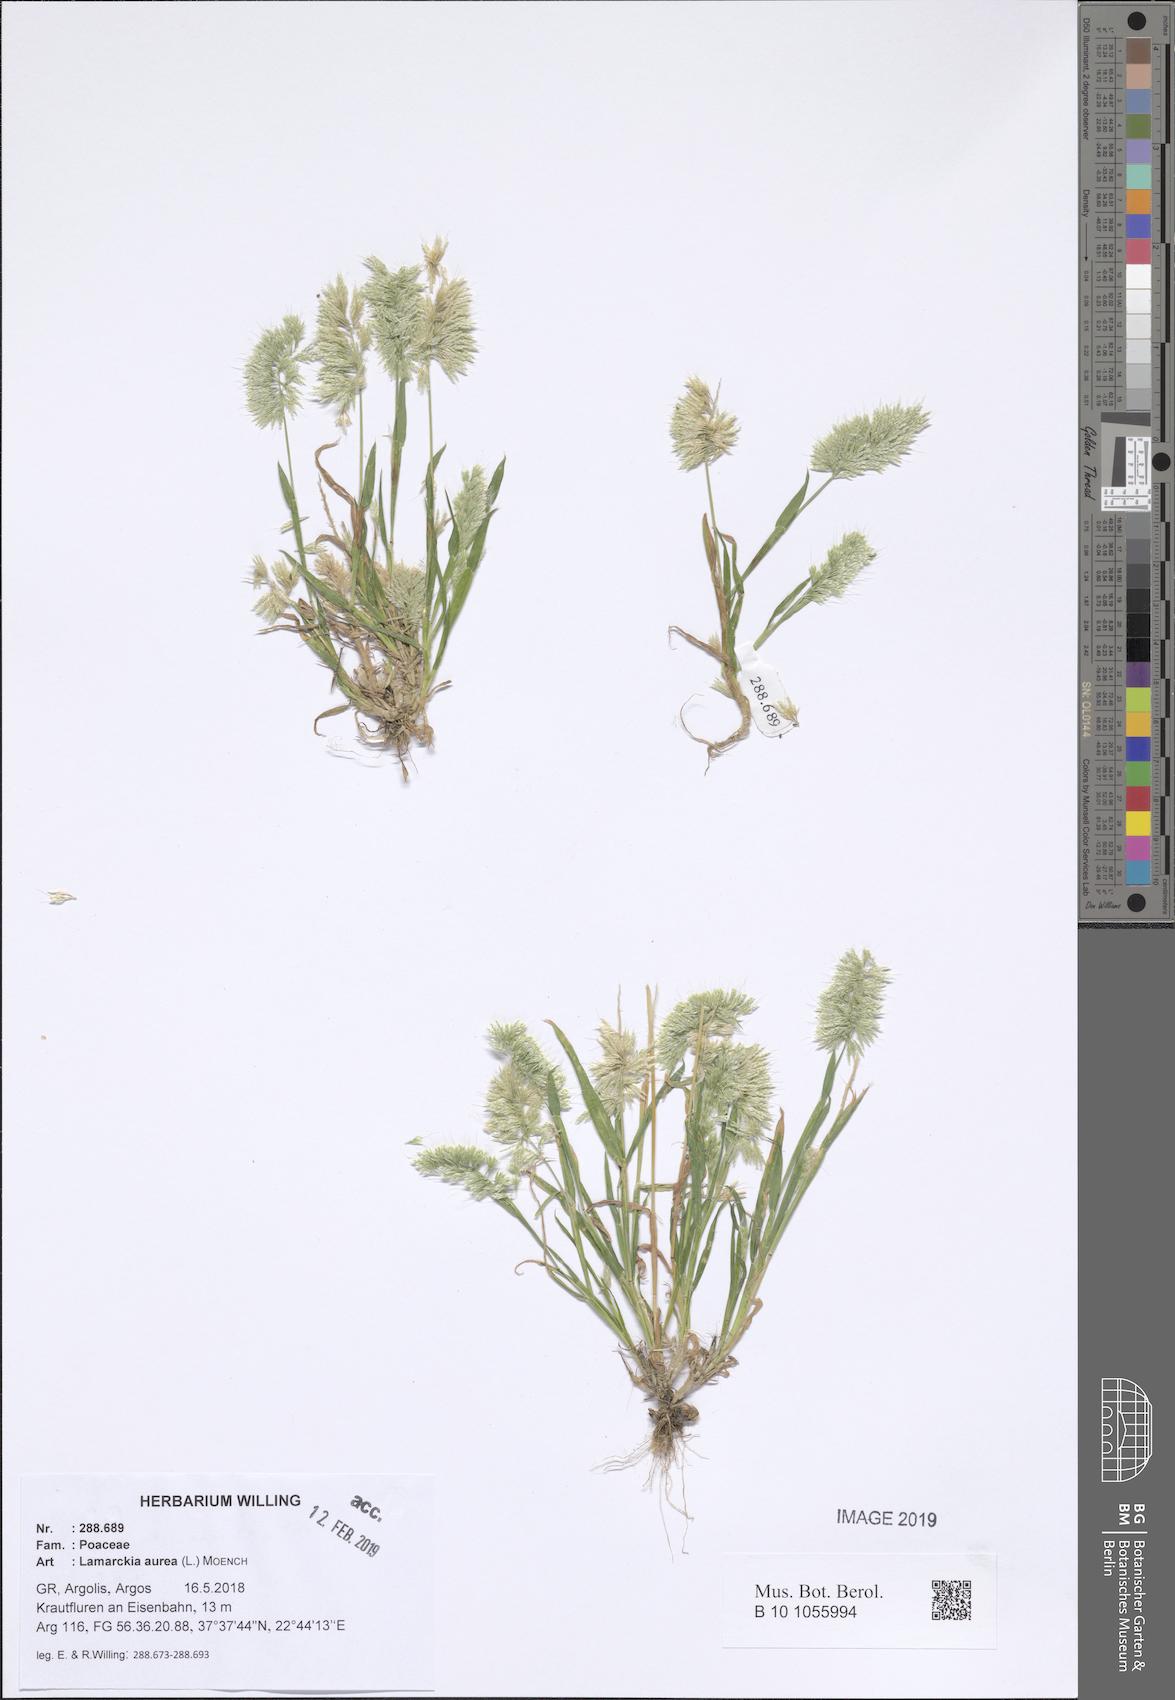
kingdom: Plantae
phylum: Tracheophyta
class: Liliopsida
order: Poales
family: Poaceae
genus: Lamarckia
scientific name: Lamarckia aurea
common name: Golden dog's-tail
